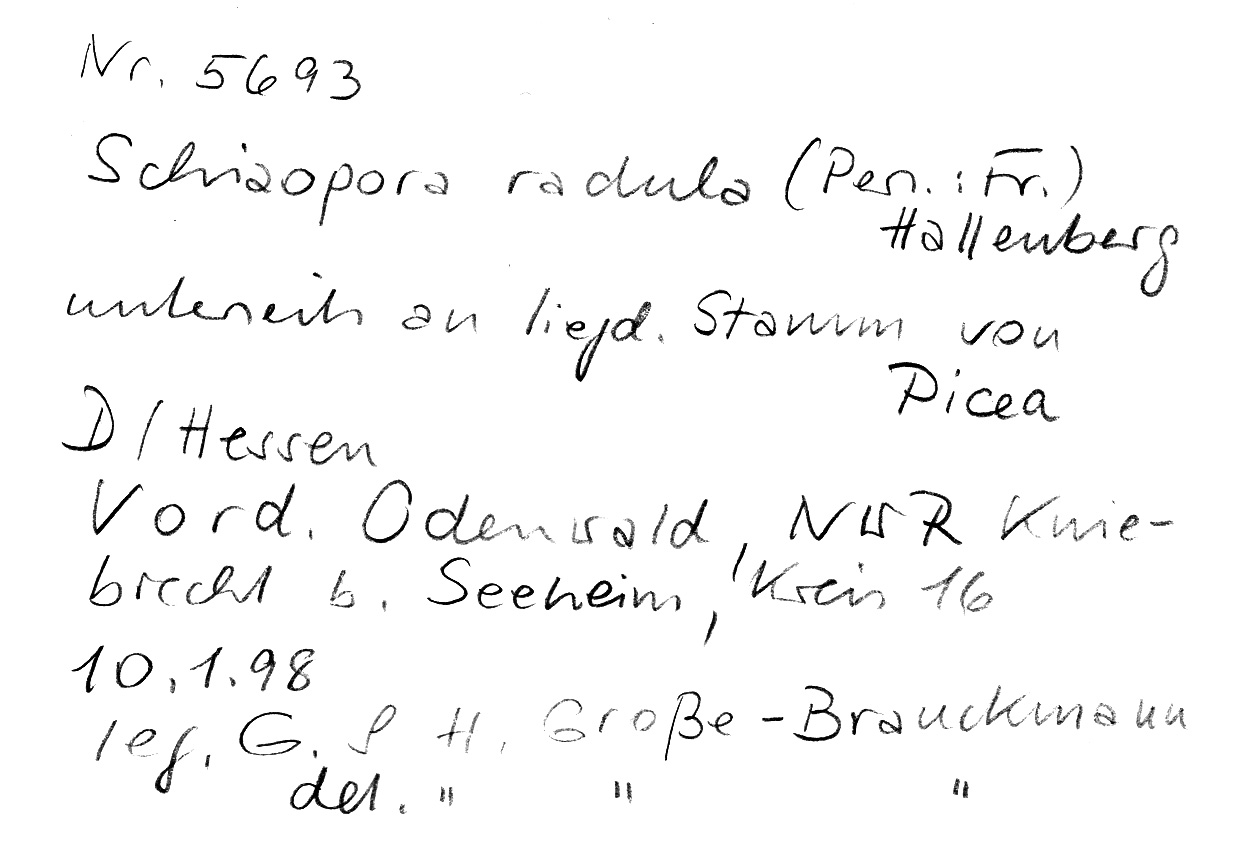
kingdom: Fungi
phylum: Basidiomycota
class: Agaricomycetes
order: Hymenochaetales
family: Schizoporaceae
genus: Xylodon
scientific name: Xylodon raduloides
